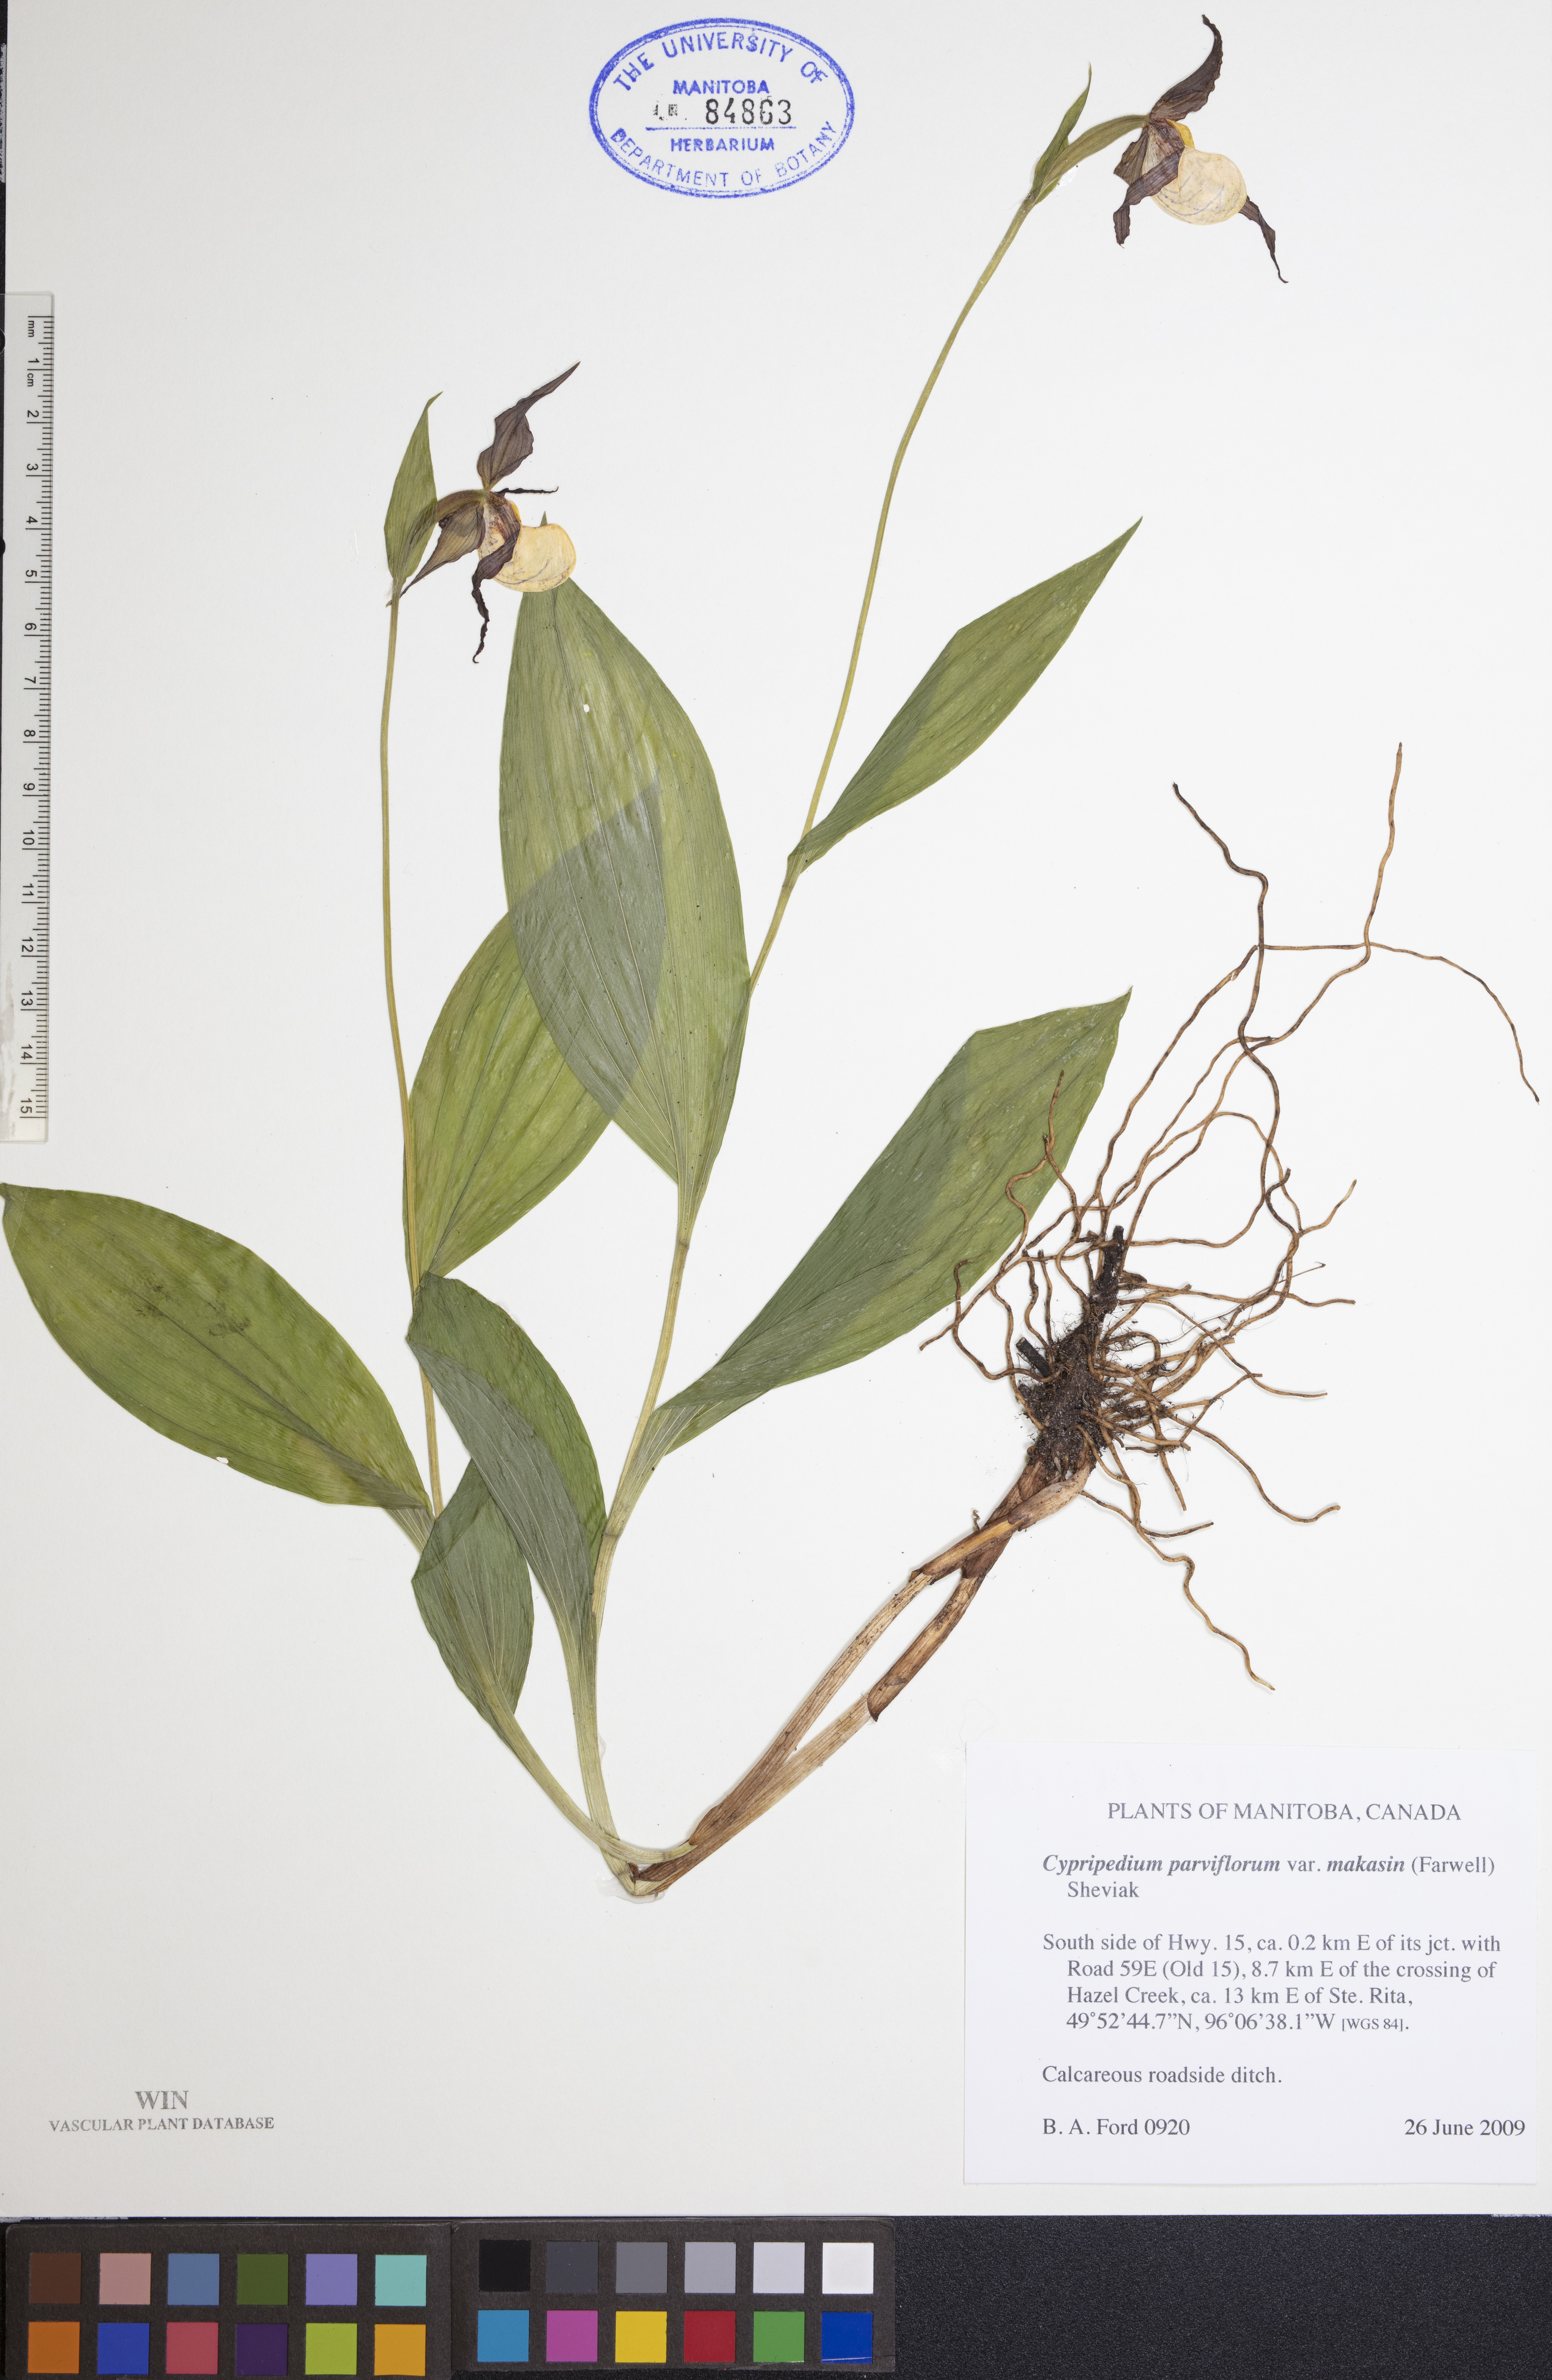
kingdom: Plantae
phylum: Tracheophyta
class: Liliopsida
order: Asparagales
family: Orchidaceae
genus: Cypripedium
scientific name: Cypripedium parviflorum
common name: American yellow lady's-slipper
